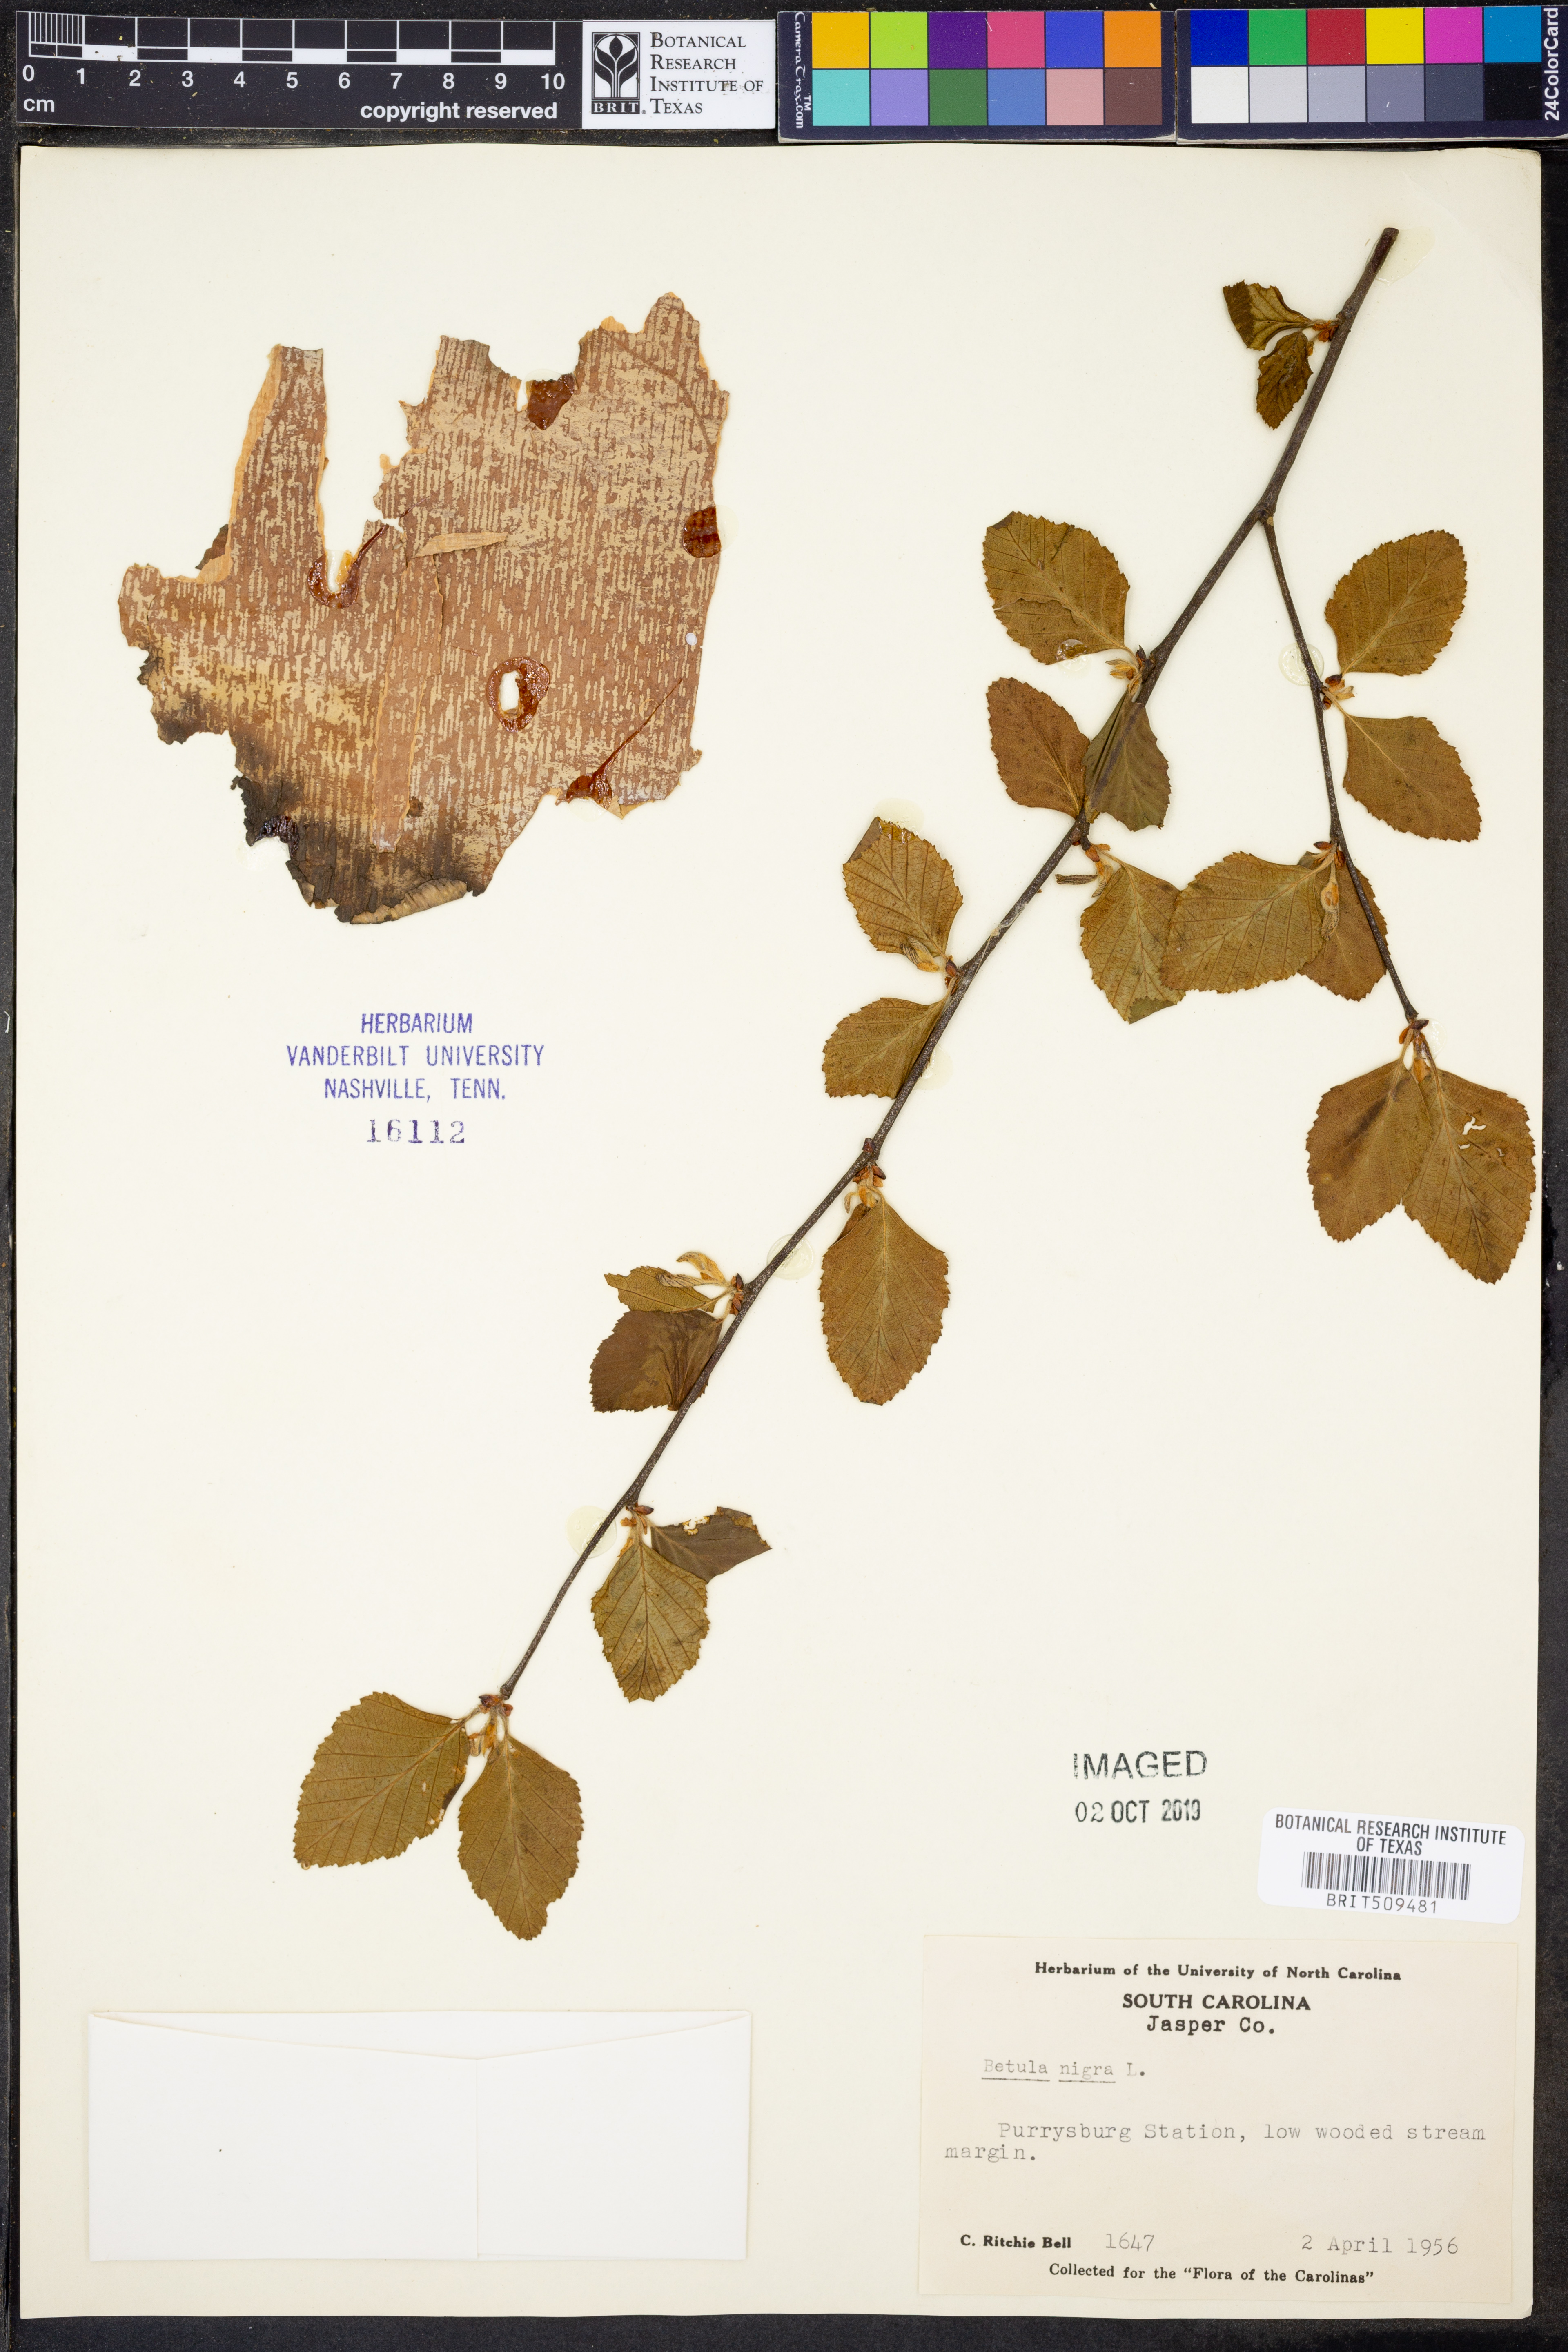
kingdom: Plantae
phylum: Tracheophyta
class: Magnoliopsida
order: Fagales
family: Betulaceae
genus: Betula
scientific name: Betula nigra
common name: Black birch
